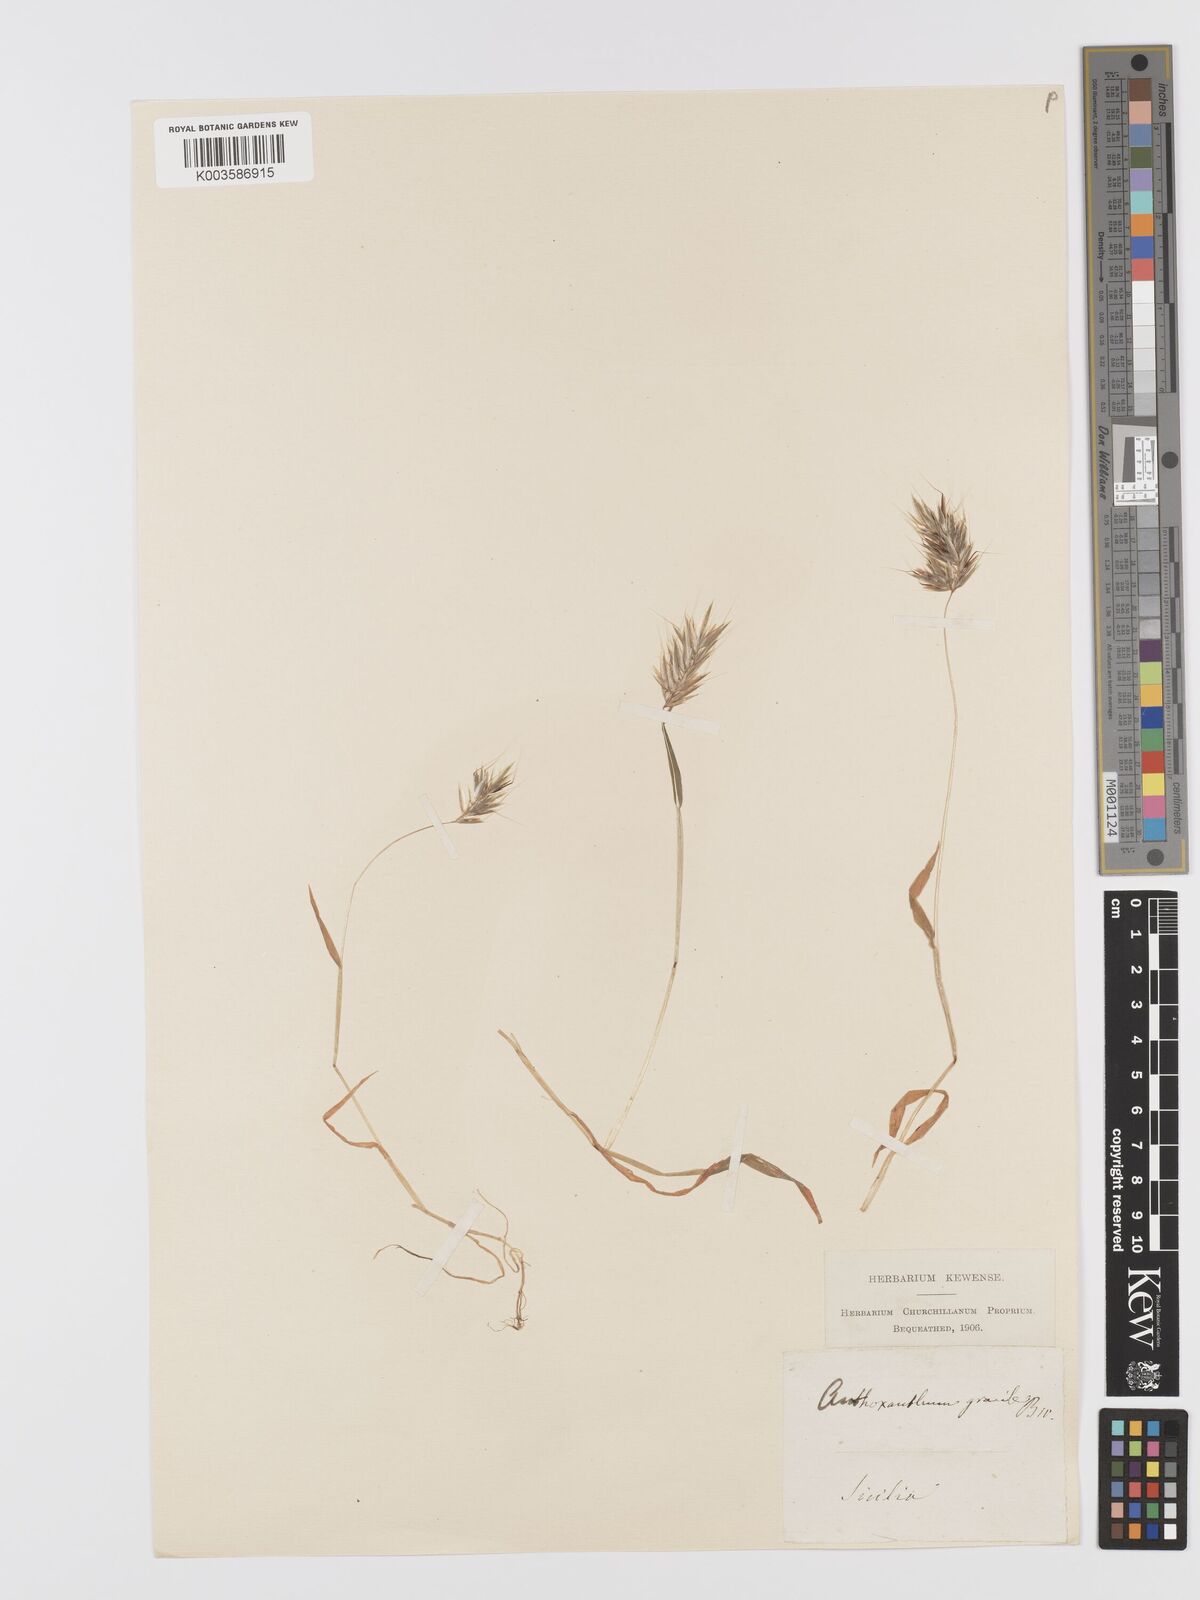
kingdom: Plantae
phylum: Tracheophyta
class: Liliopsida
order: Poales
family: Poaceae
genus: Anthoxanthum
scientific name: Anthoxanthum gracile
